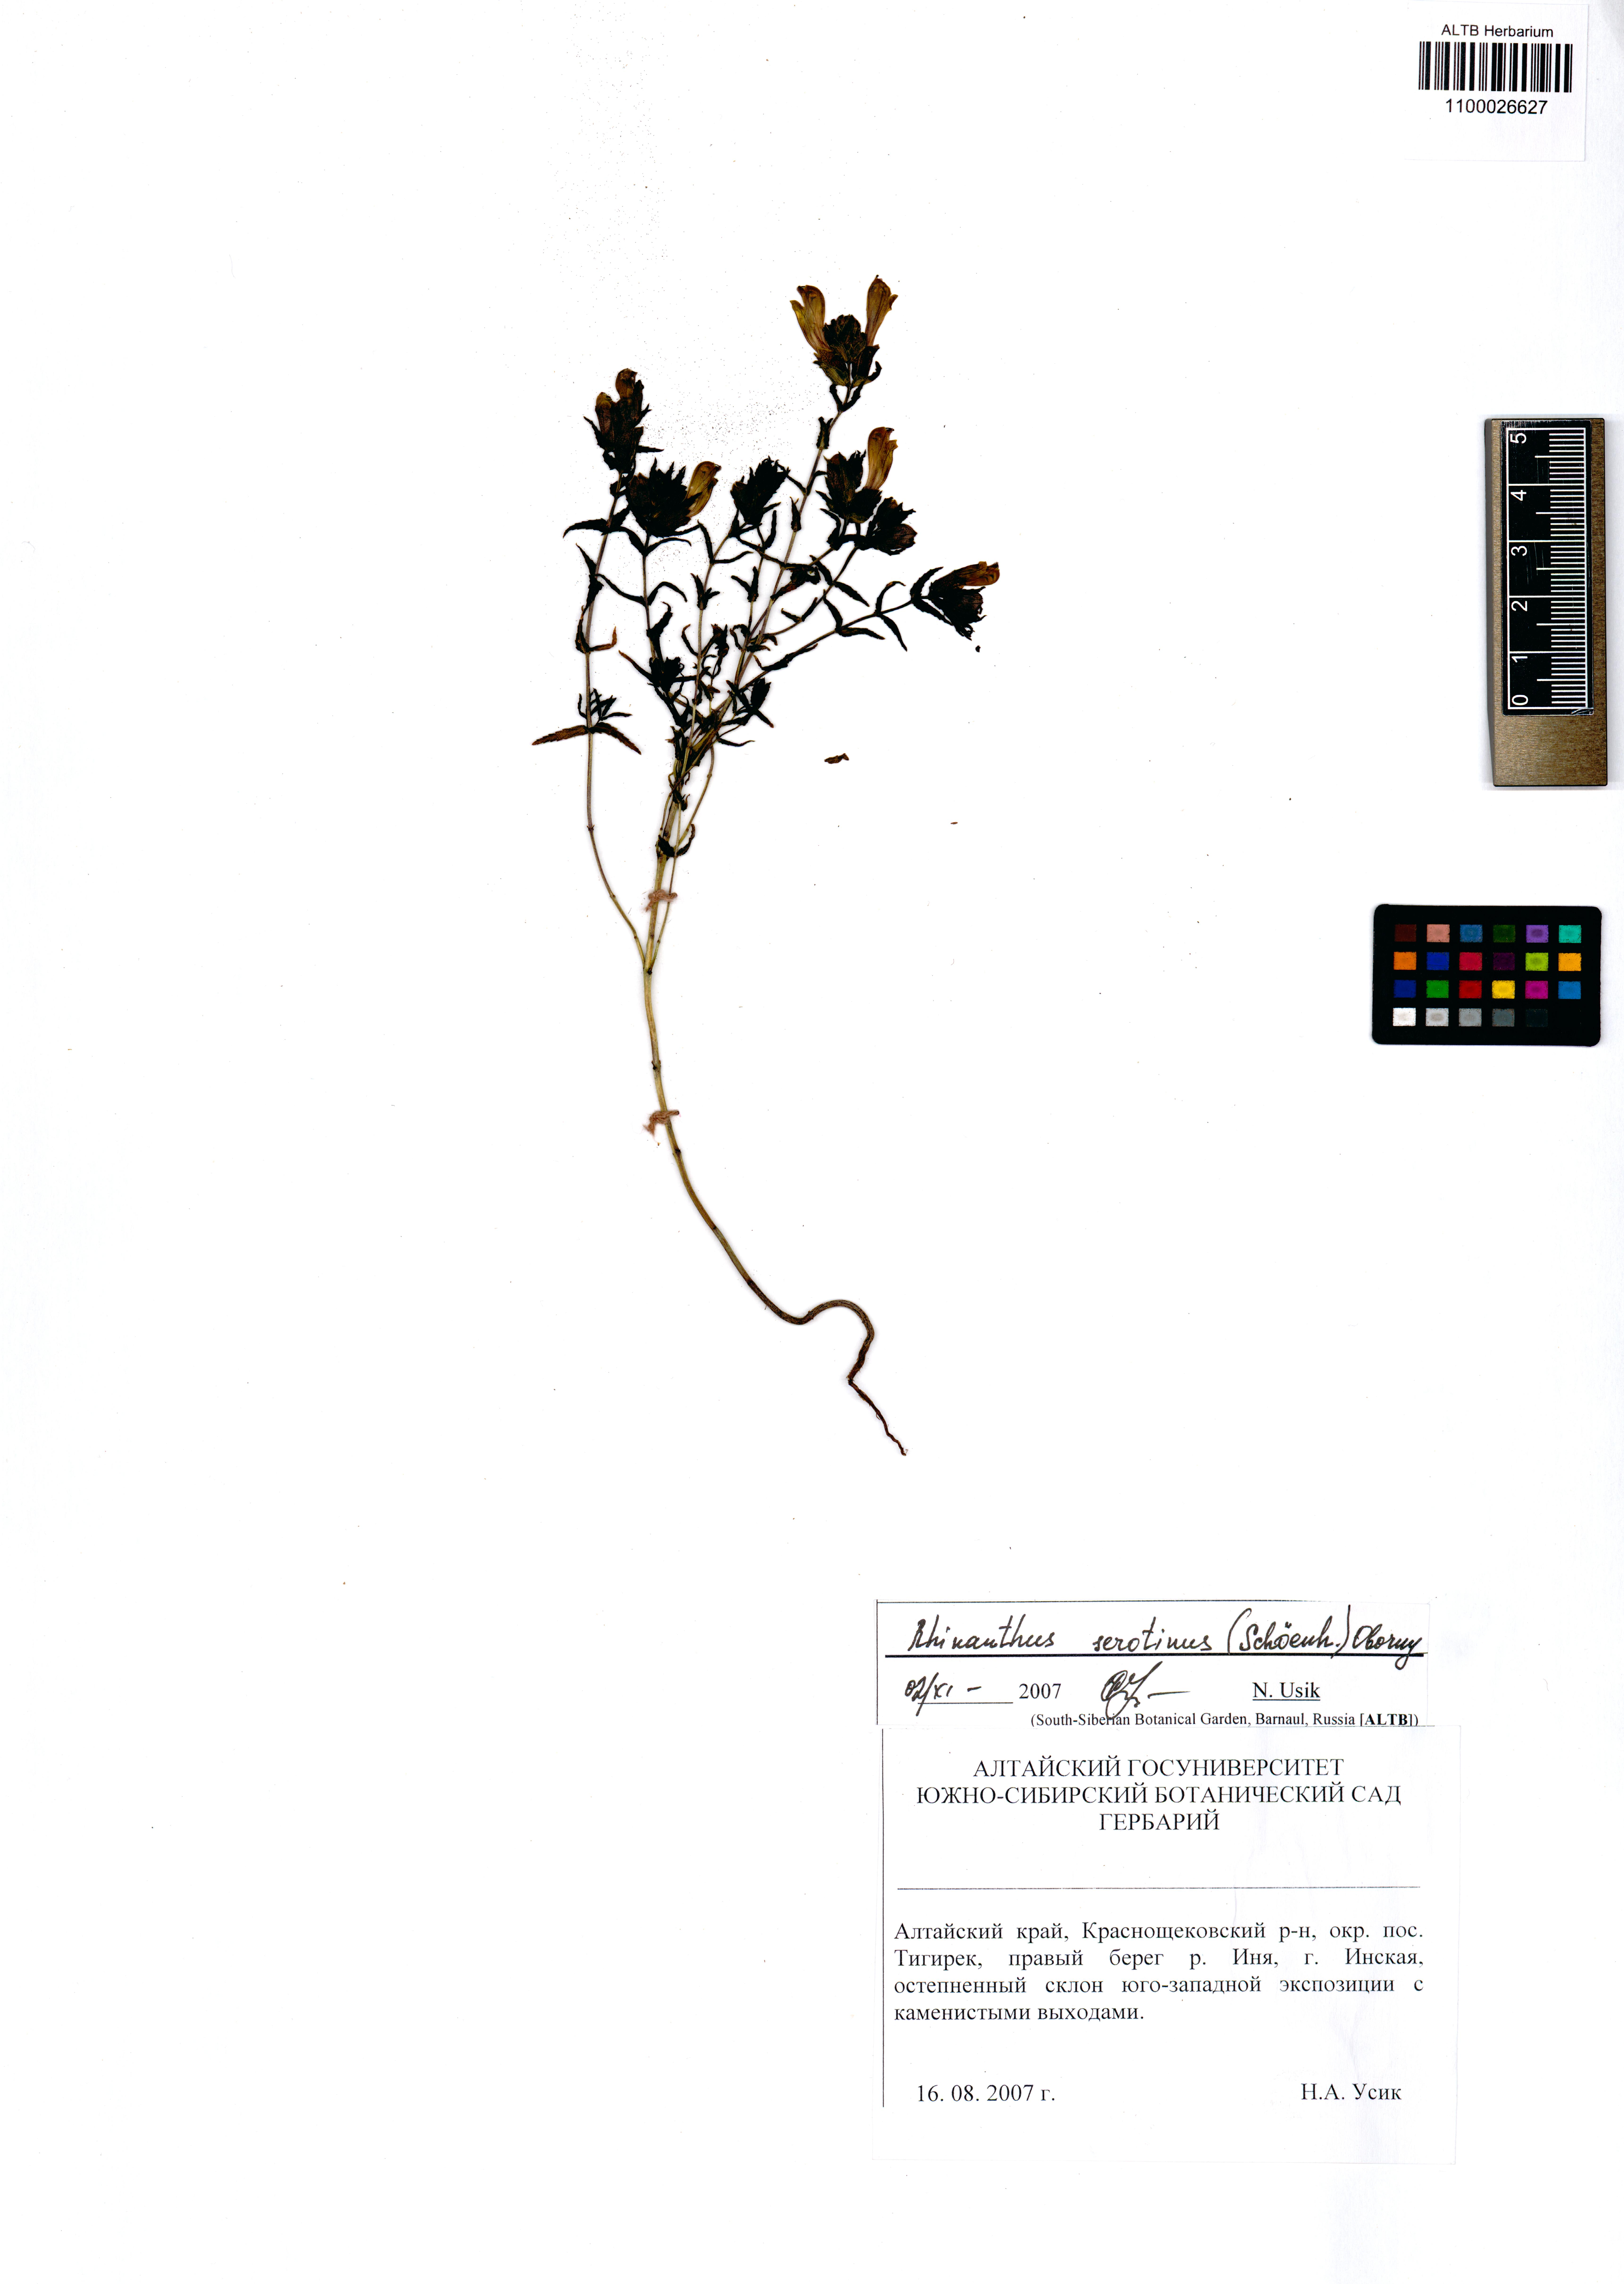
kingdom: Plantae
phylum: Tracheophyta
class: Magnoliopsida
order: Lamiales
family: Orobanchaceae
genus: Rhinanthus
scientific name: Rhinanthus
